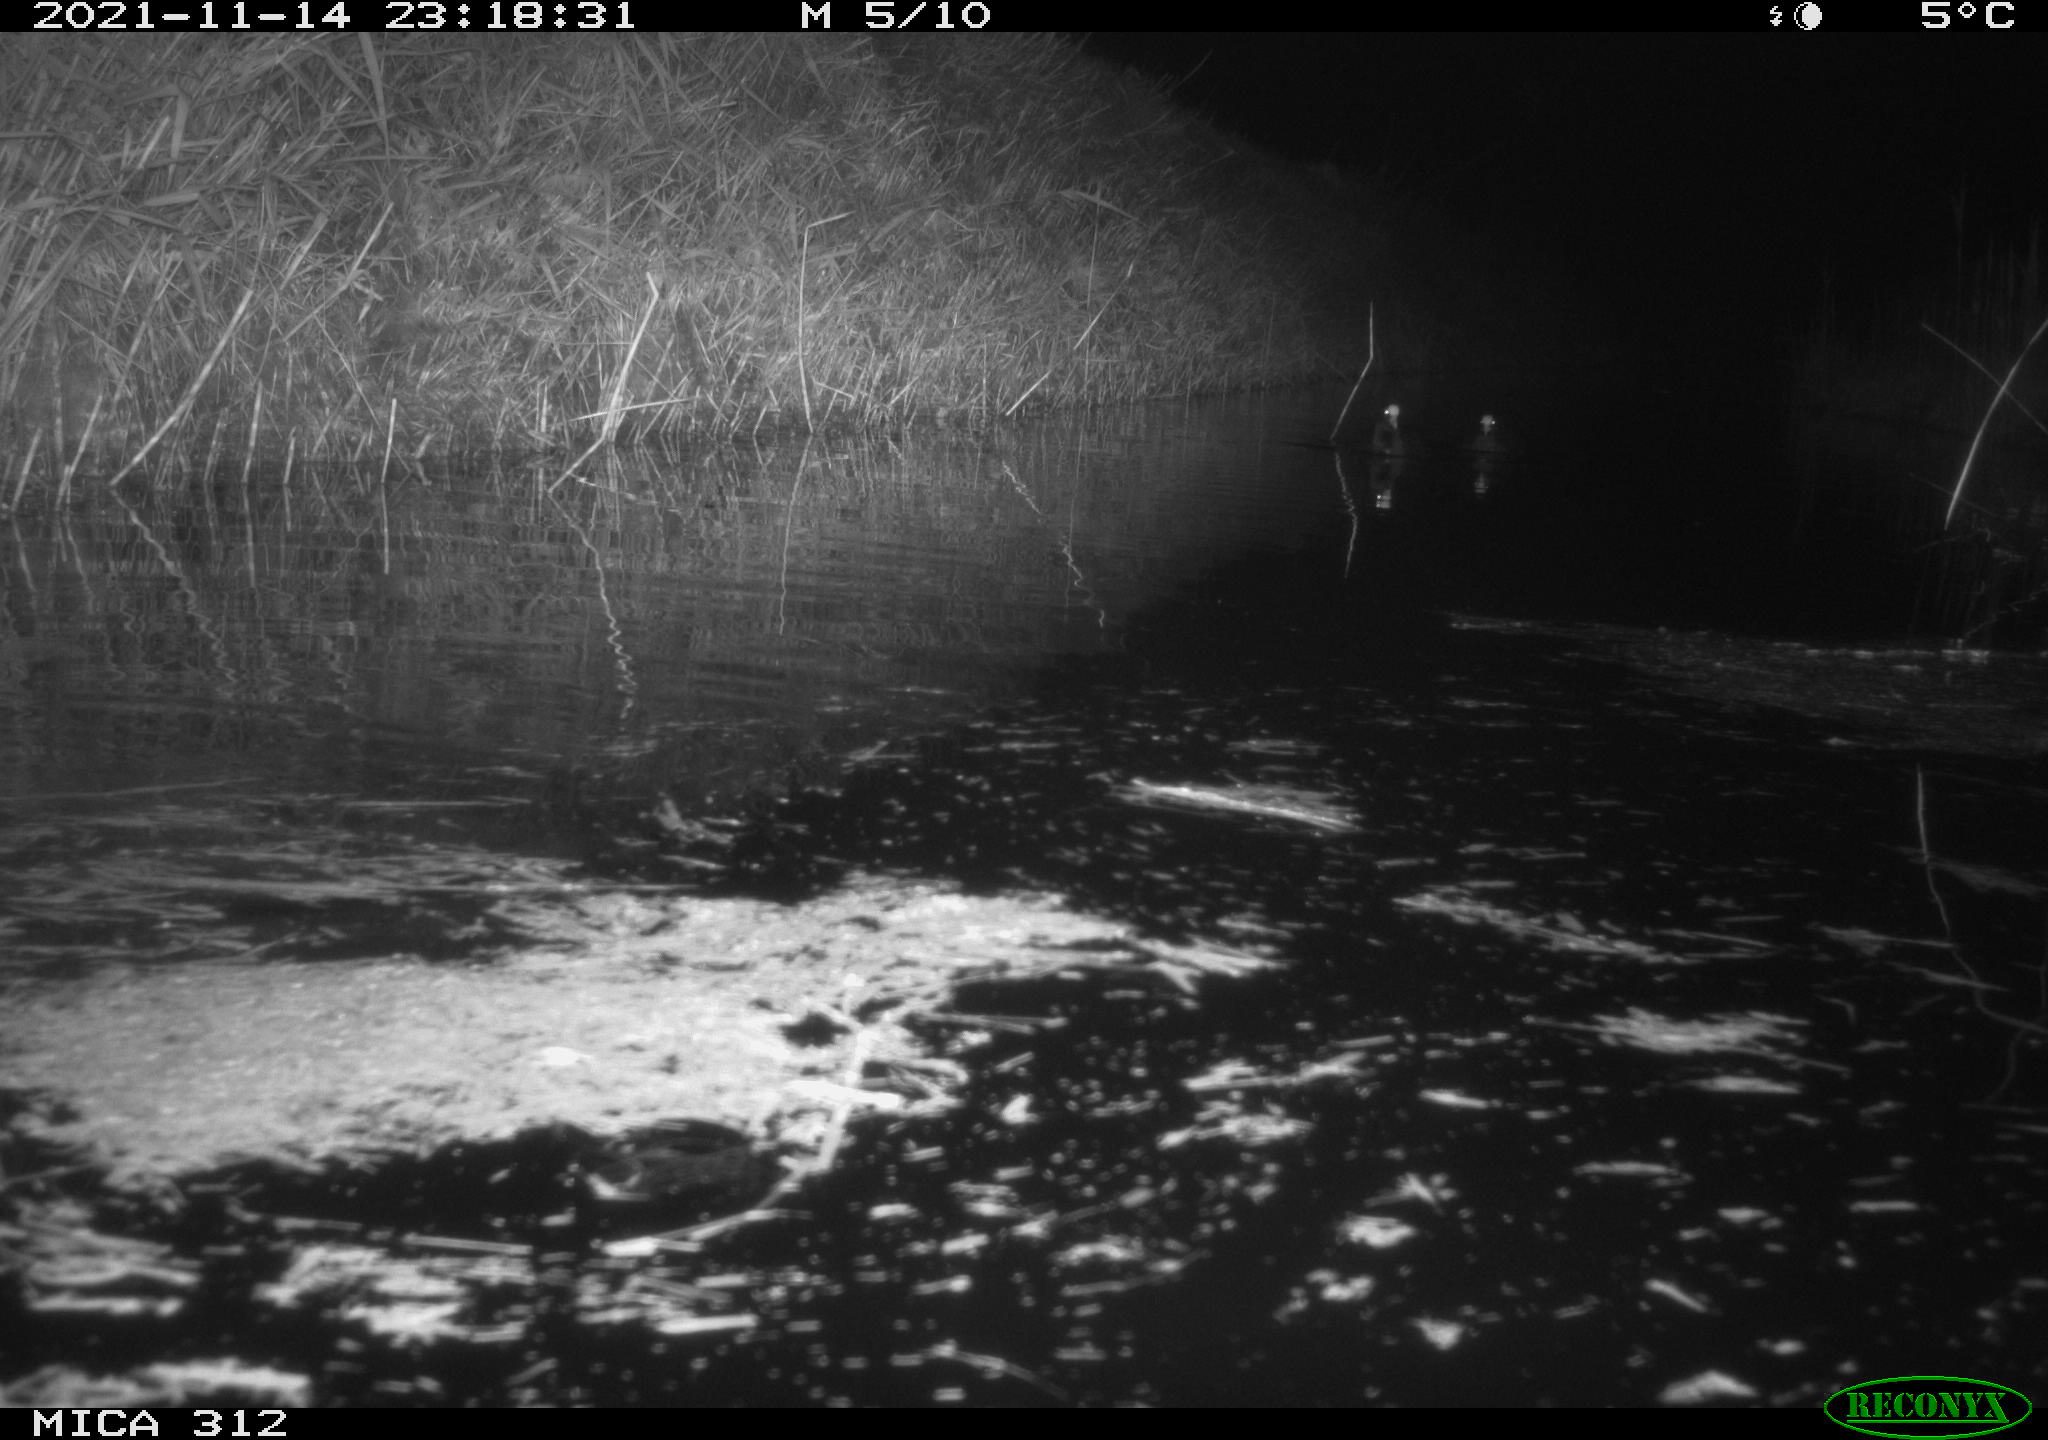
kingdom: Animalia
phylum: Chordata
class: Aves
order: Gruiformes
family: Rallidae
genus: Fulica
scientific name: Fulica atra
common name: Eurasian coot
